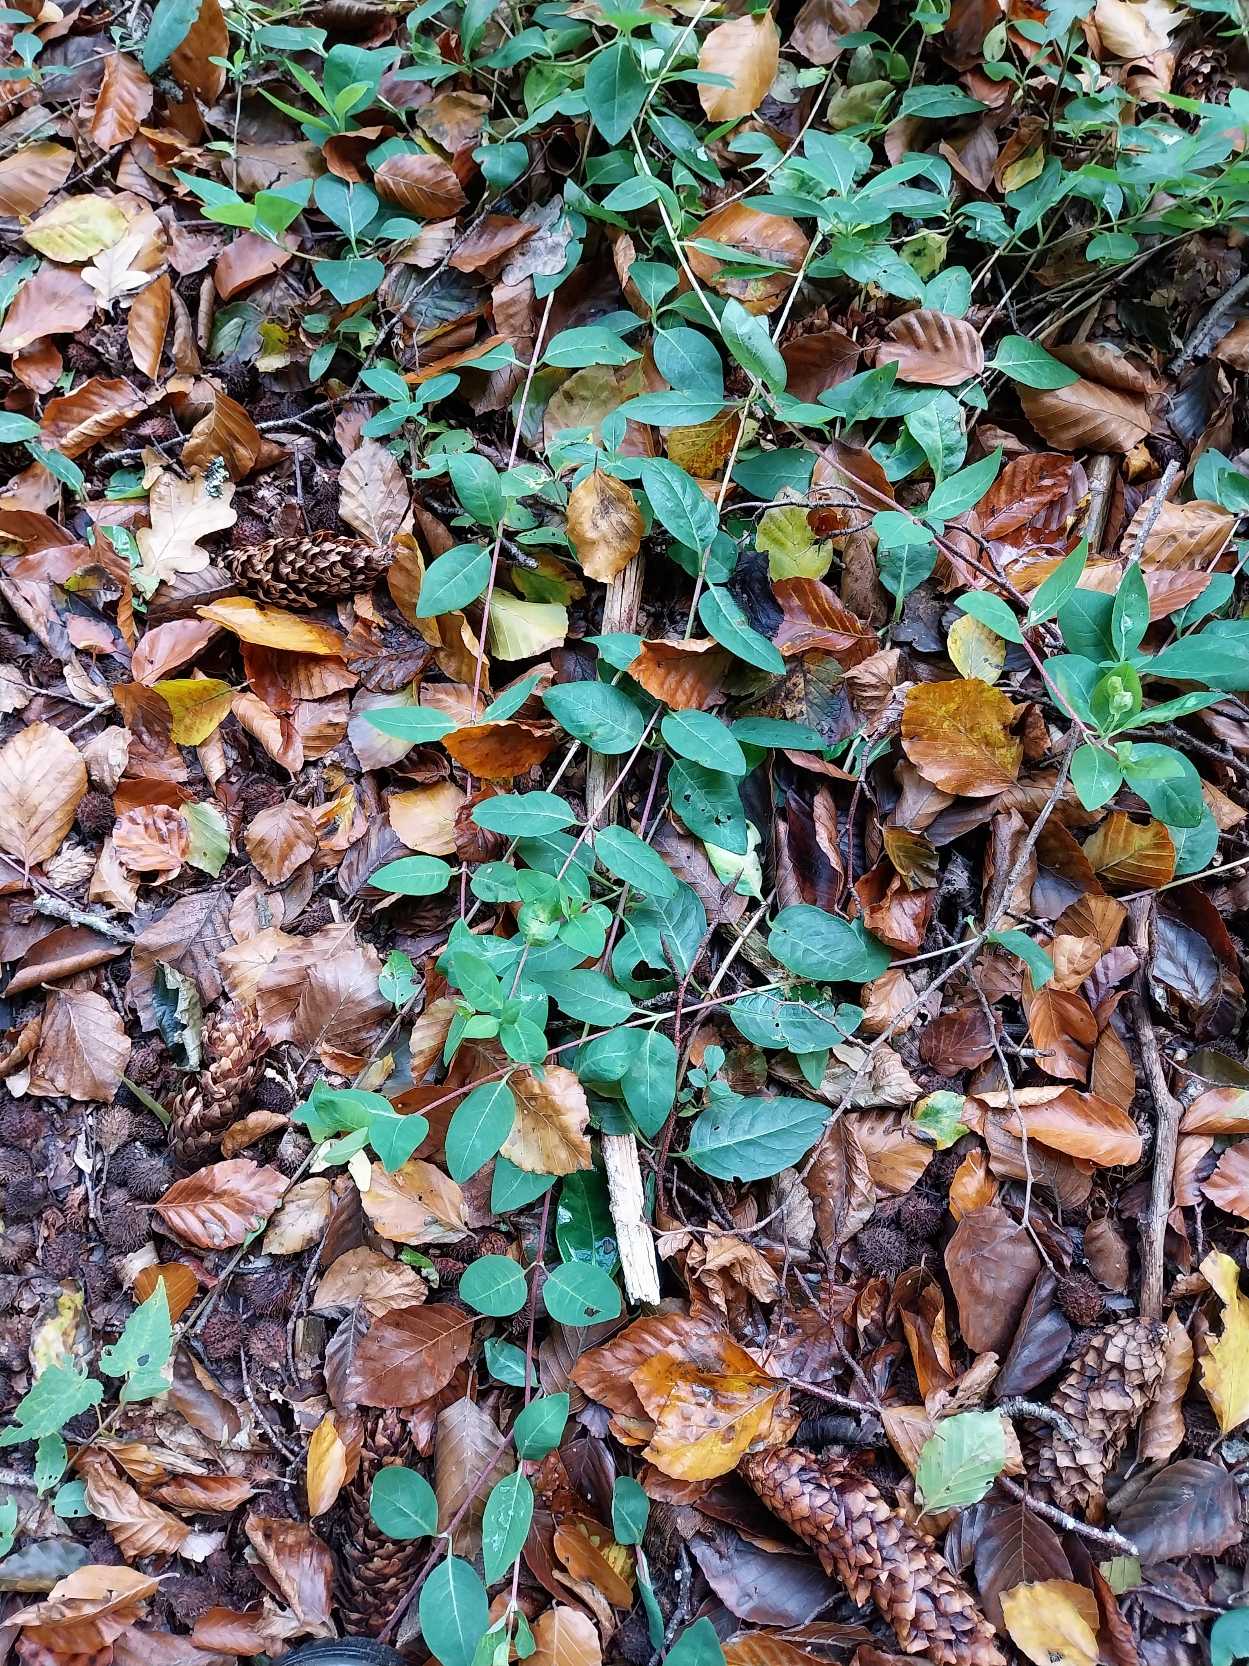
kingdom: Plantae
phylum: Tracheophyta
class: Magnoliopsida
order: Dipsacales
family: Caprifoliaceae
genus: Lonicera
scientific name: Lonicera periclymenum
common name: Almindelig gedeblad
